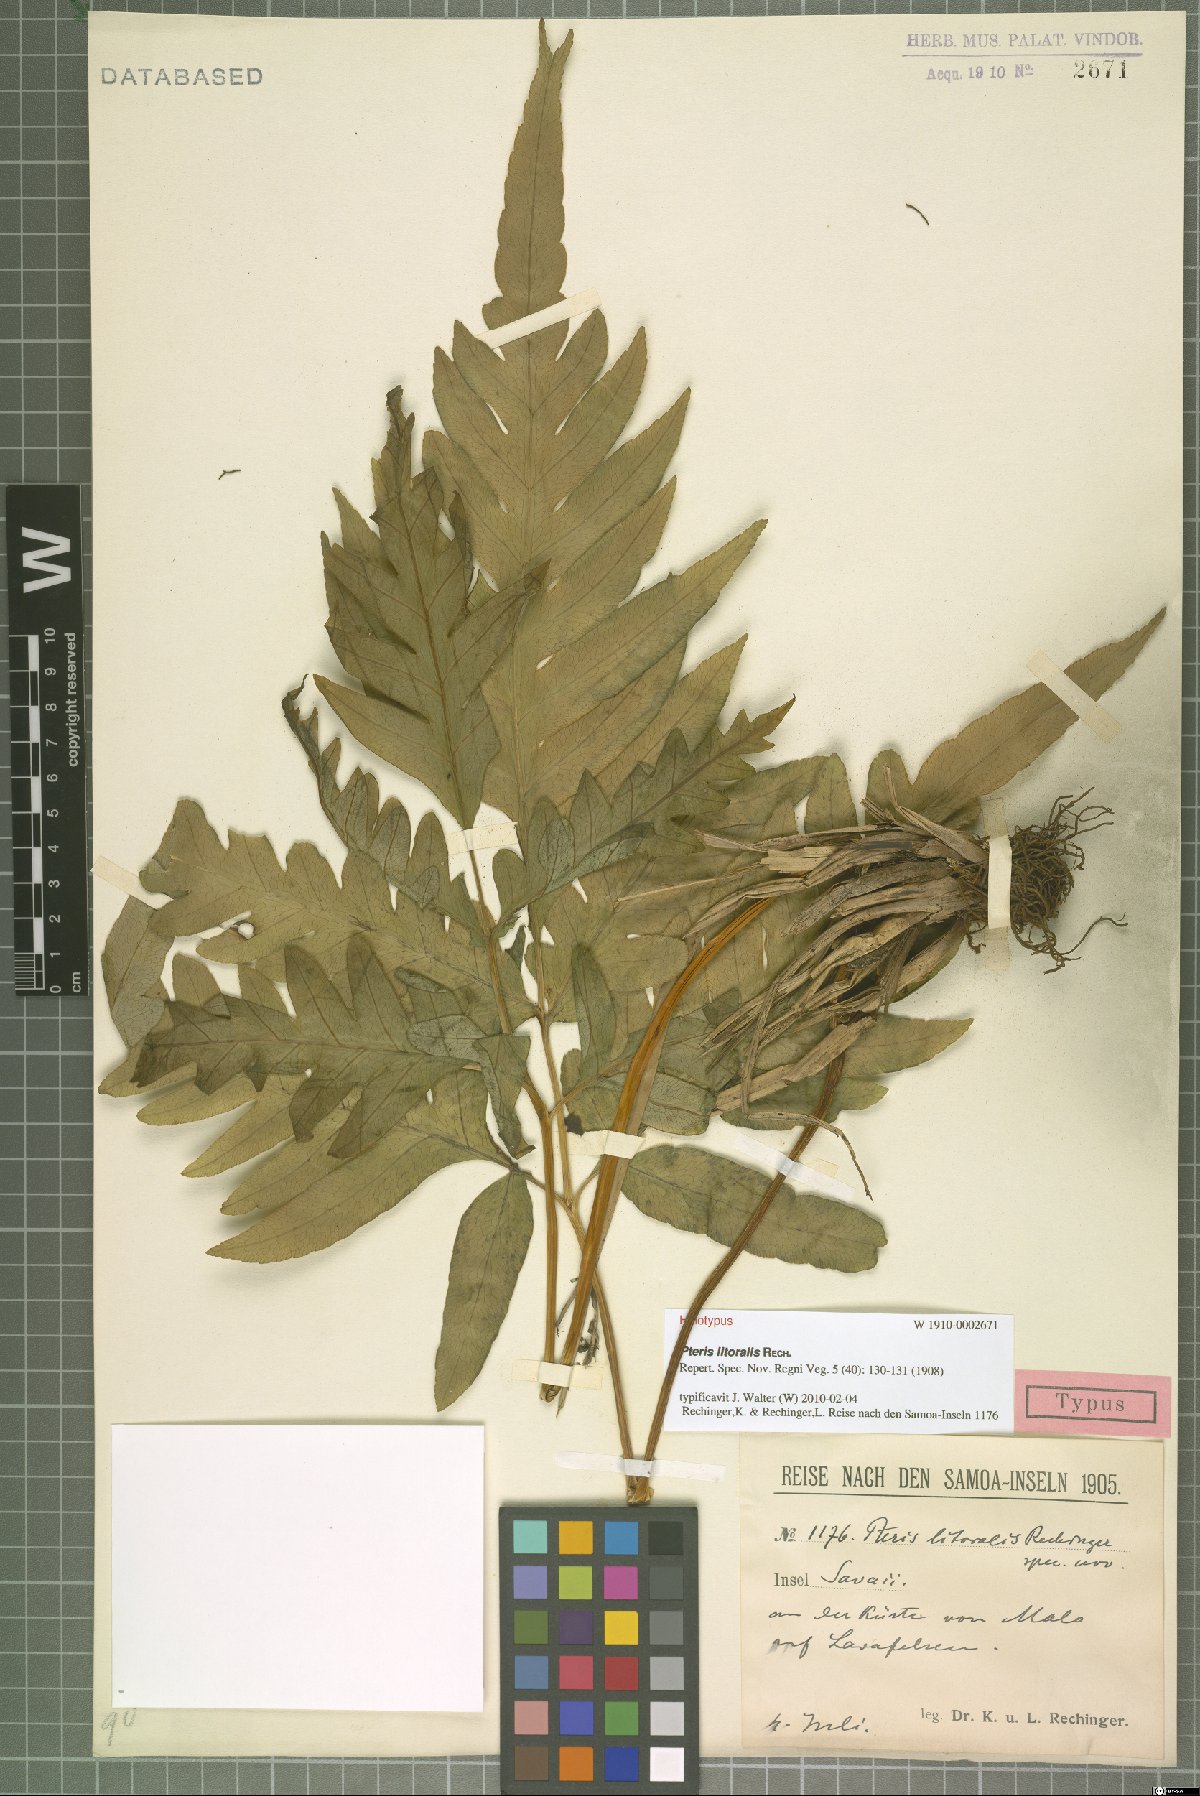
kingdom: Plantae
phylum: Tracheophyta
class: Polypodiopsida
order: Polypodiales
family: Pteridaceae
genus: Pteris
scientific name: Pteris litoralis
